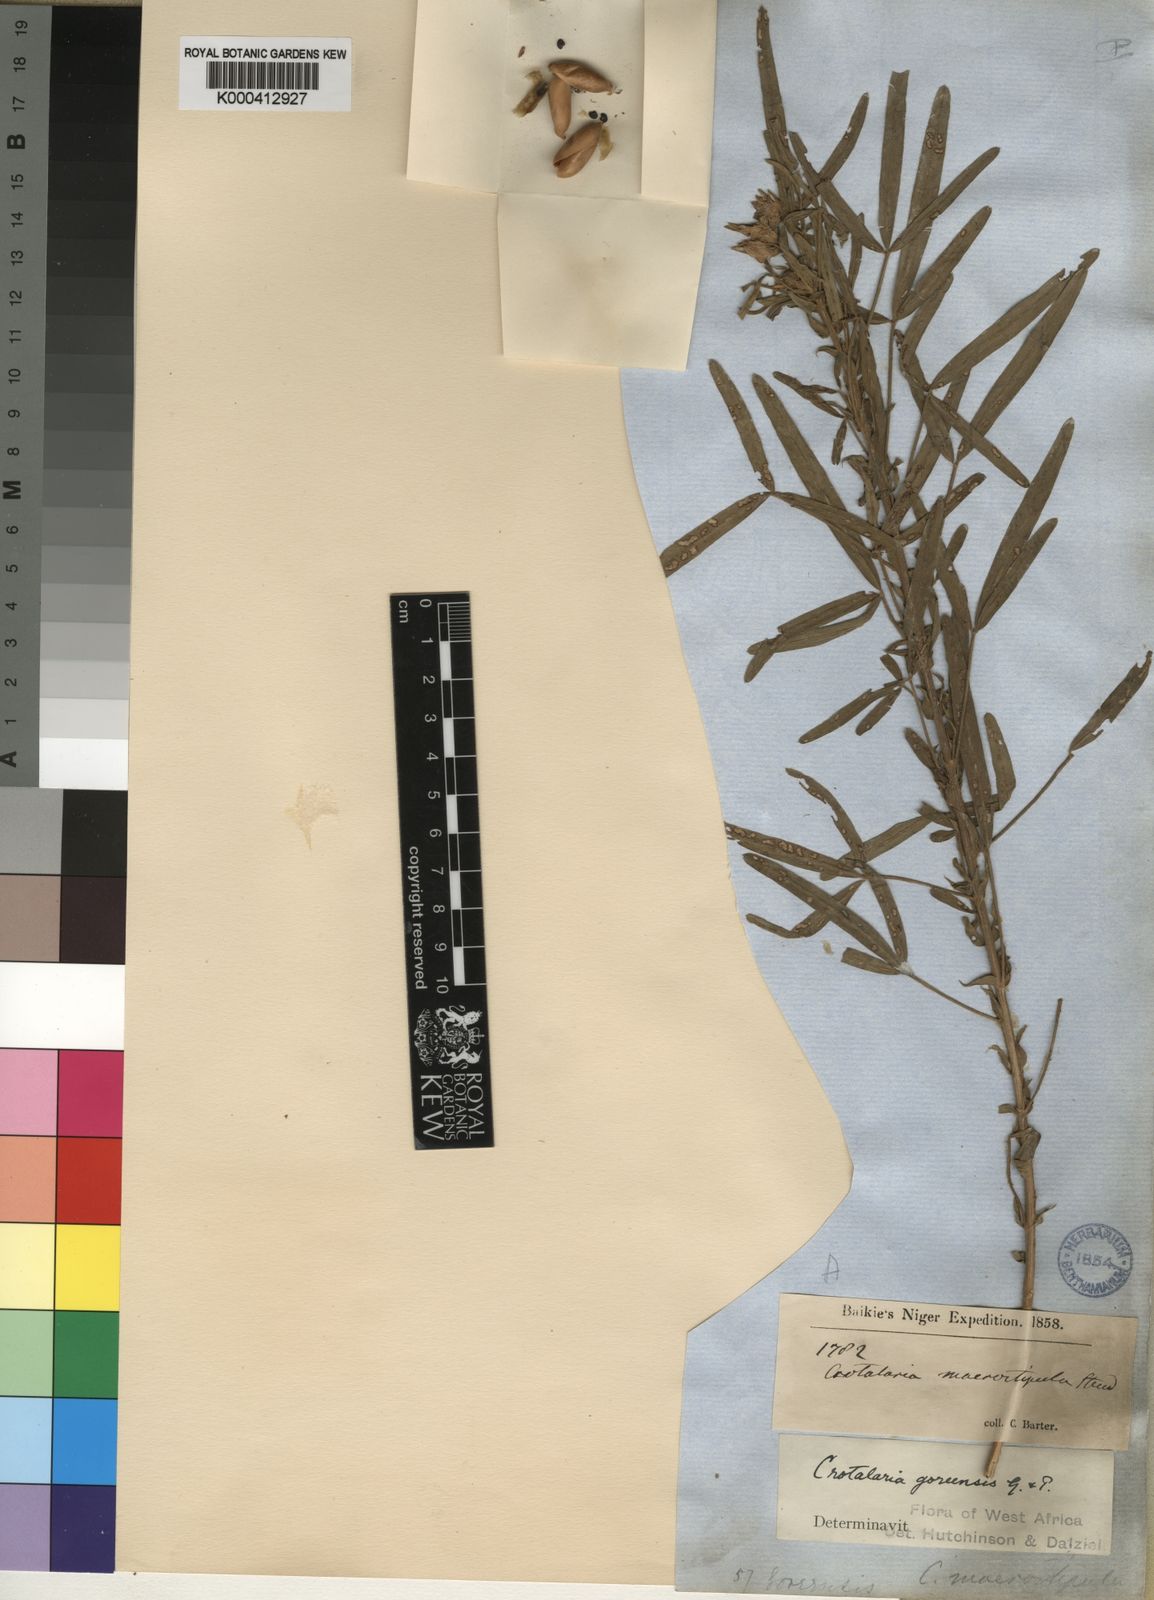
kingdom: Plantae
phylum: Tracheophyta
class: Magnoliopsida
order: Fabales
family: Fabaceae
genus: Crotalaria
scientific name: Crotalaria goreensis
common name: Gambia-pea
